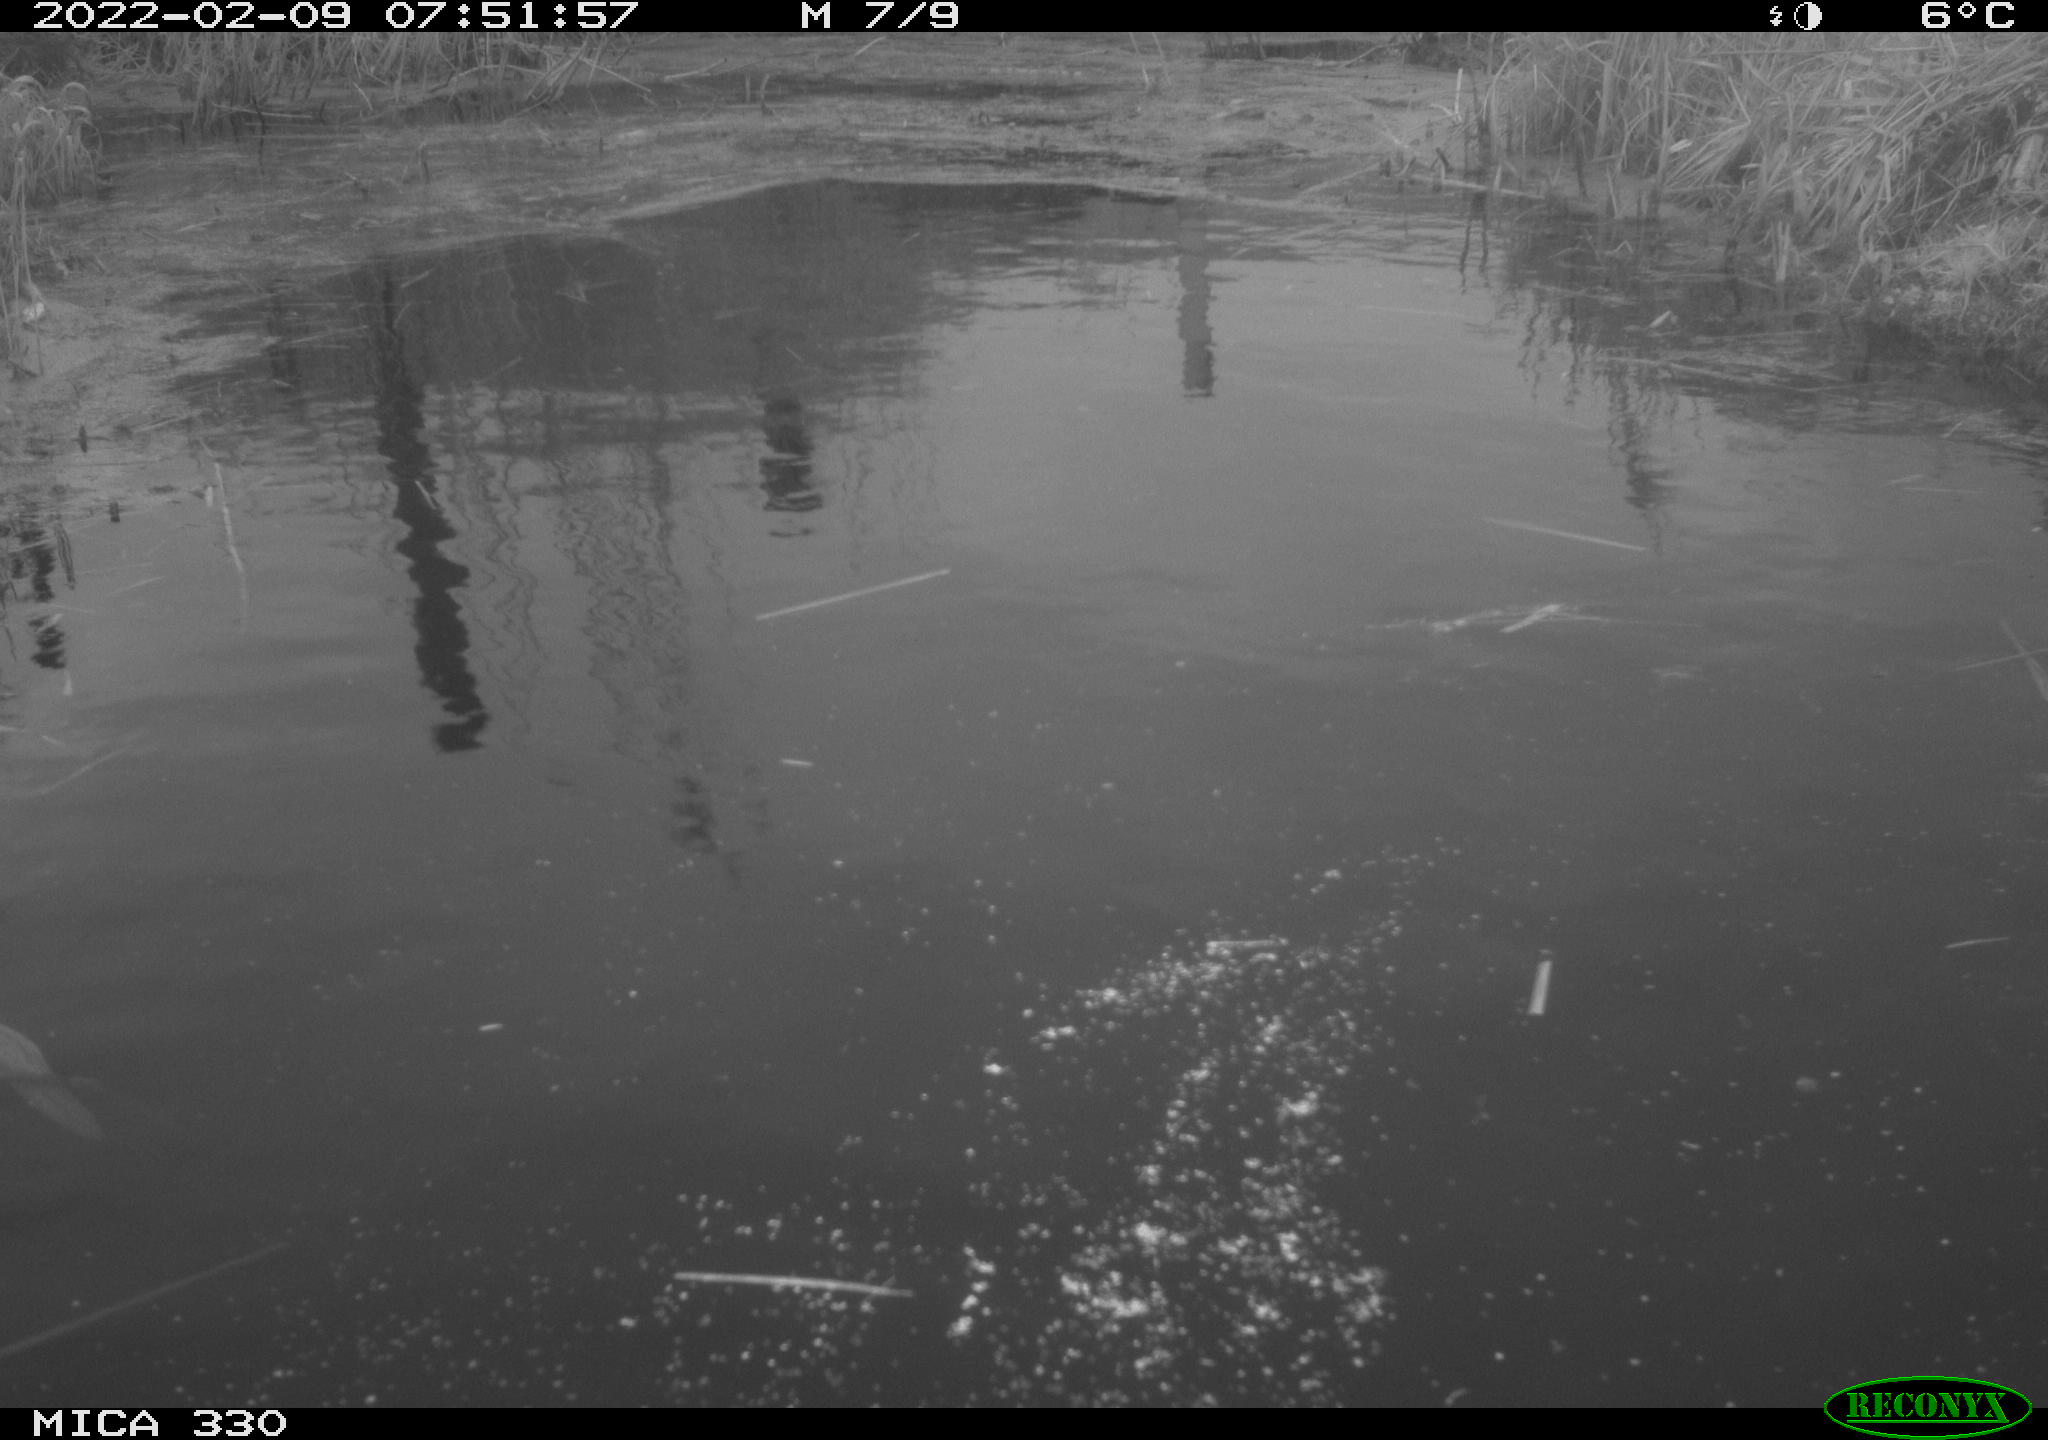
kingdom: Animalia
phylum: Chordata
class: Aves
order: Gruiformes
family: Rallidae
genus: Gallinula
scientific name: Gallinula chloropus
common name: Common moorhen
